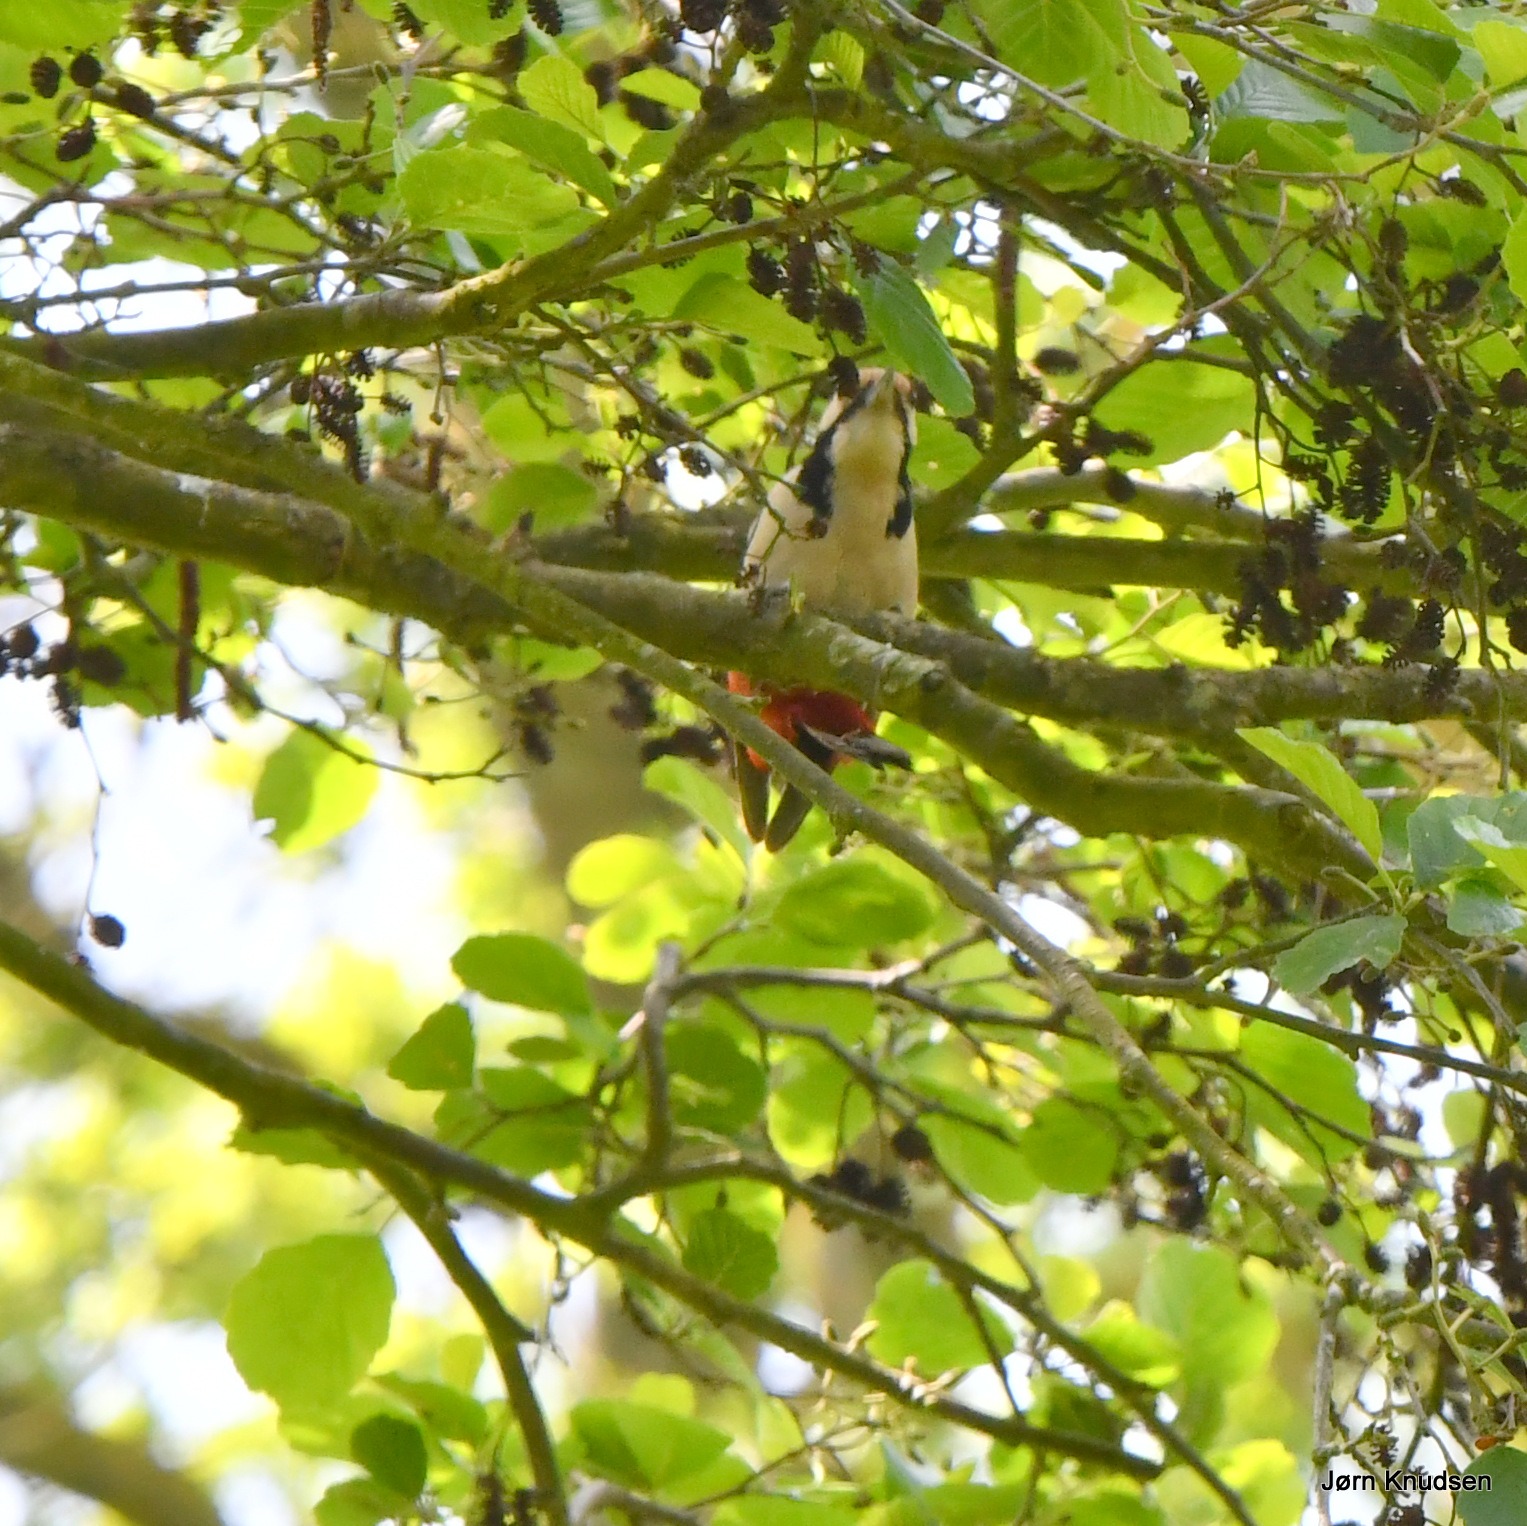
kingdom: Animalia
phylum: Chordata
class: Aves
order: Piciformes
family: Picidae
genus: Dendrocopos
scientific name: Dendrocopos major
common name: Stor flagspætte
